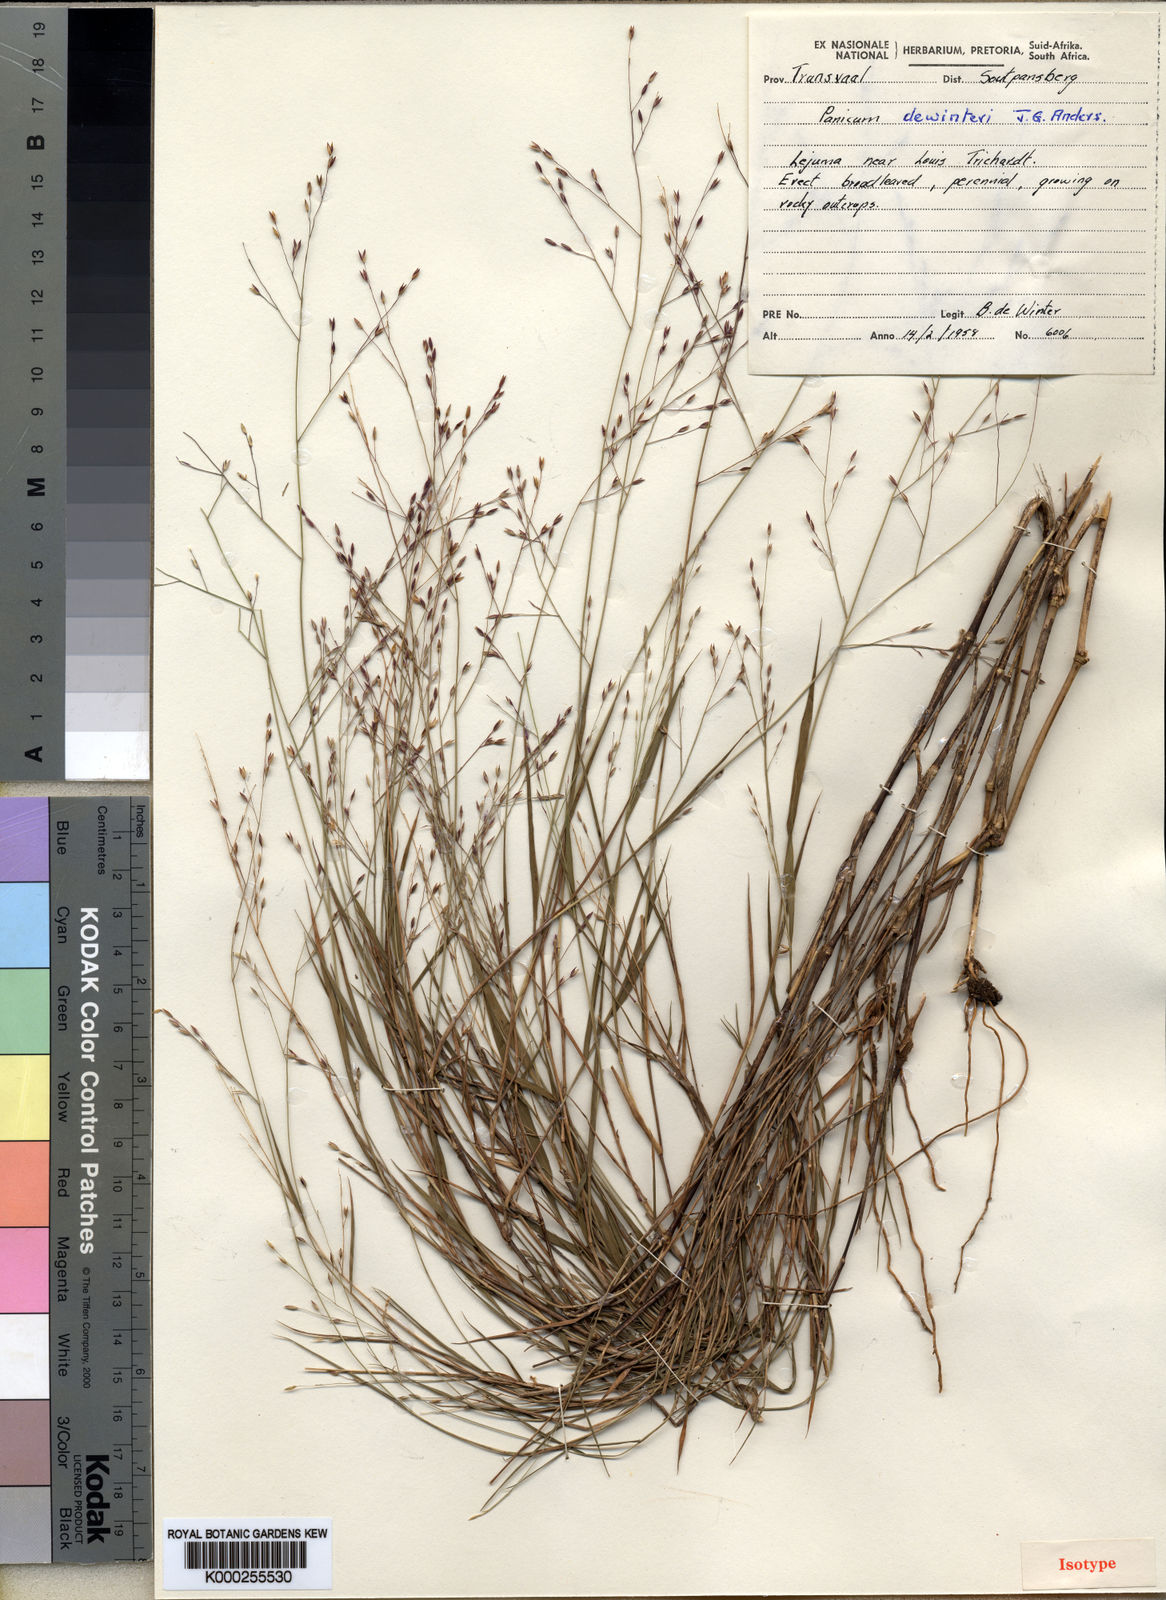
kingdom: Plantae
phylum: Tracheophyta
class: Liliopsida
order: Poales
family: Poaceae
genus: Panicum
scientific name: Panicum dewinteri
